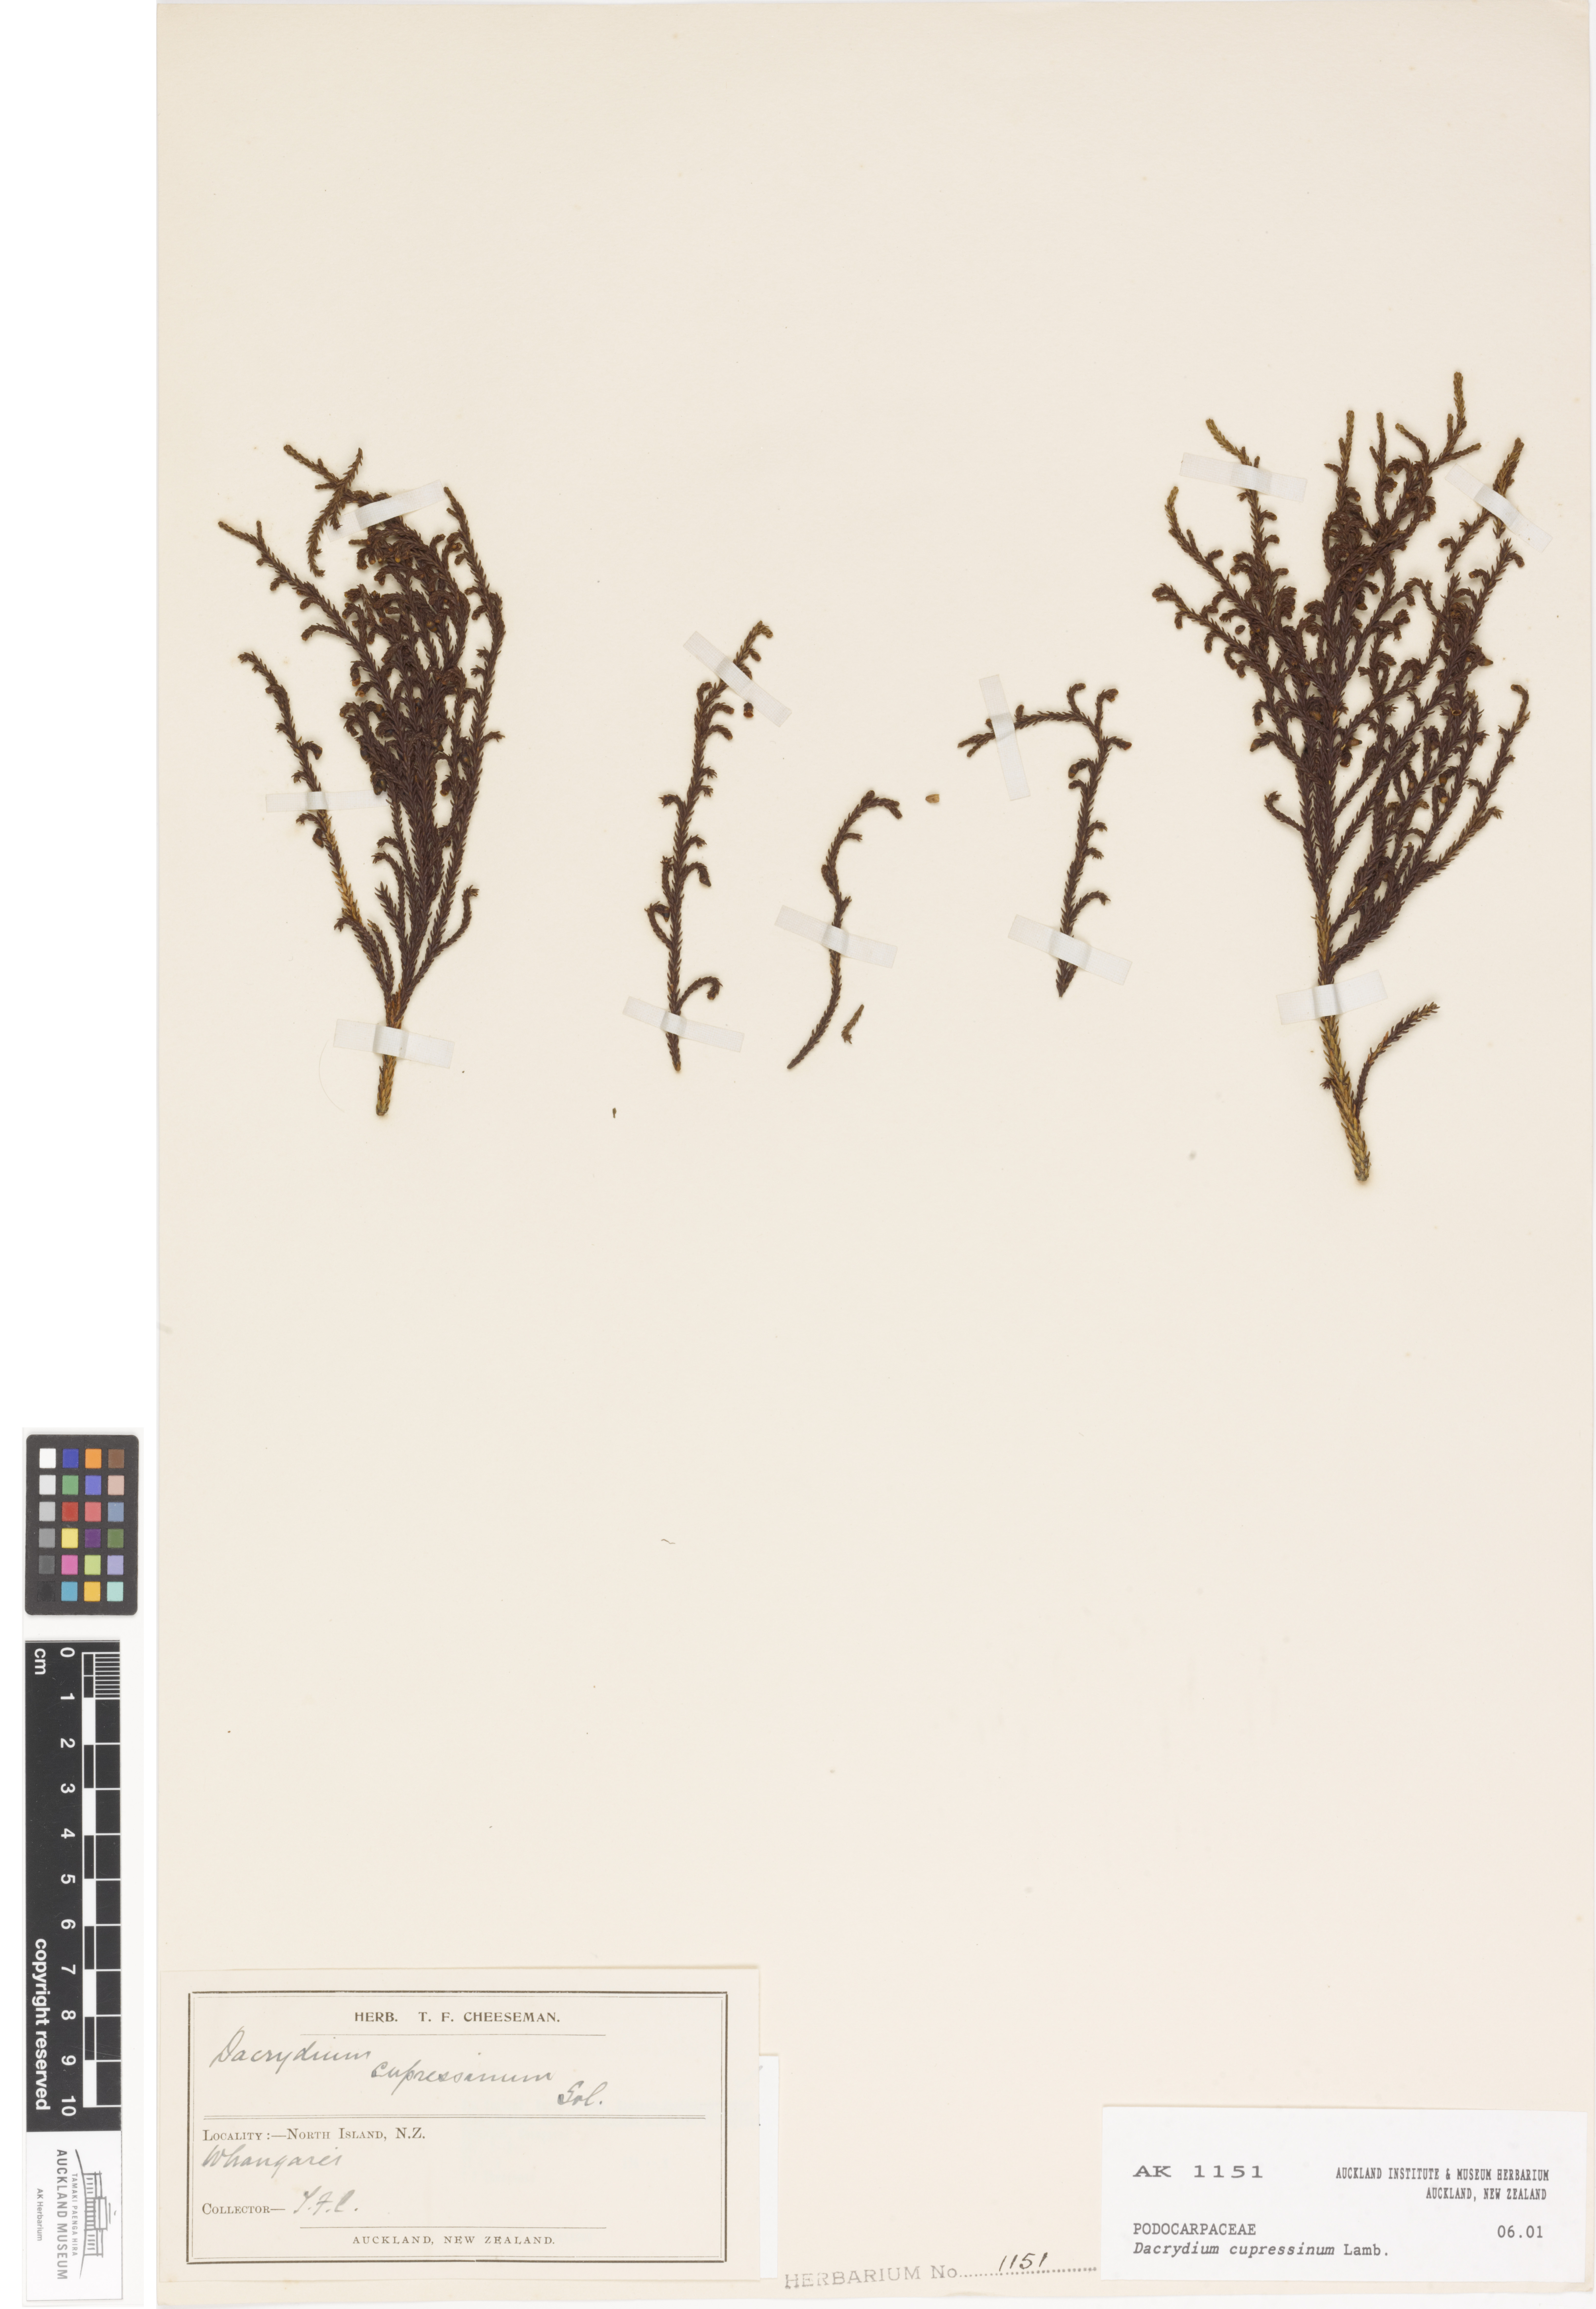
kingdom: Plantae
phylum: Tracheophyta
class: Pinopsida
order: Pinales
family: Podocarpaceae
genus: Dacrydium
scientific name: Dacrydium cupressinum
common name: Red pine
